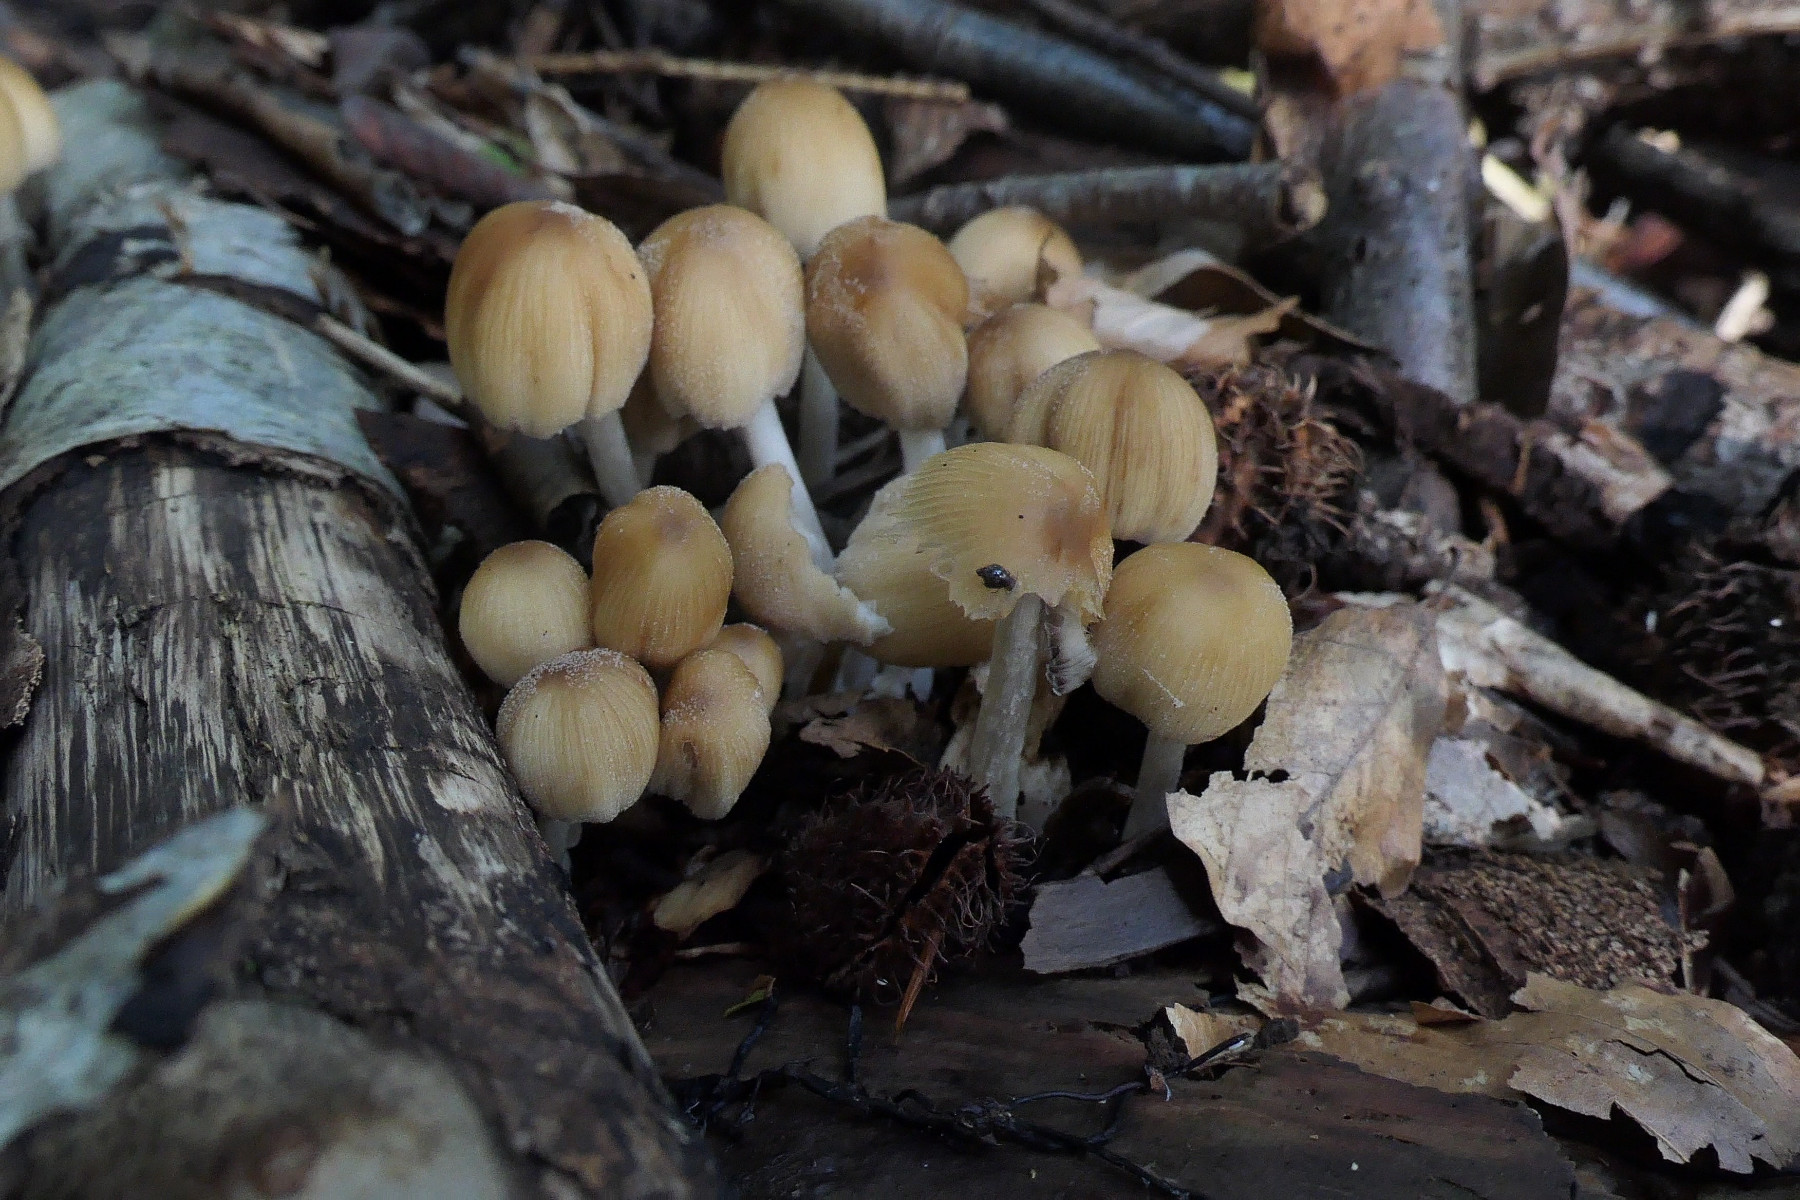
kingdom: Fungi
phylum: Basidiomycota
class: Agaricomycetes
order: Agaricales
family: Psathyrellaceae
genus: Coprinellus
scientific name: Coprinellus micaceus
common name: glimmer-blækhat
